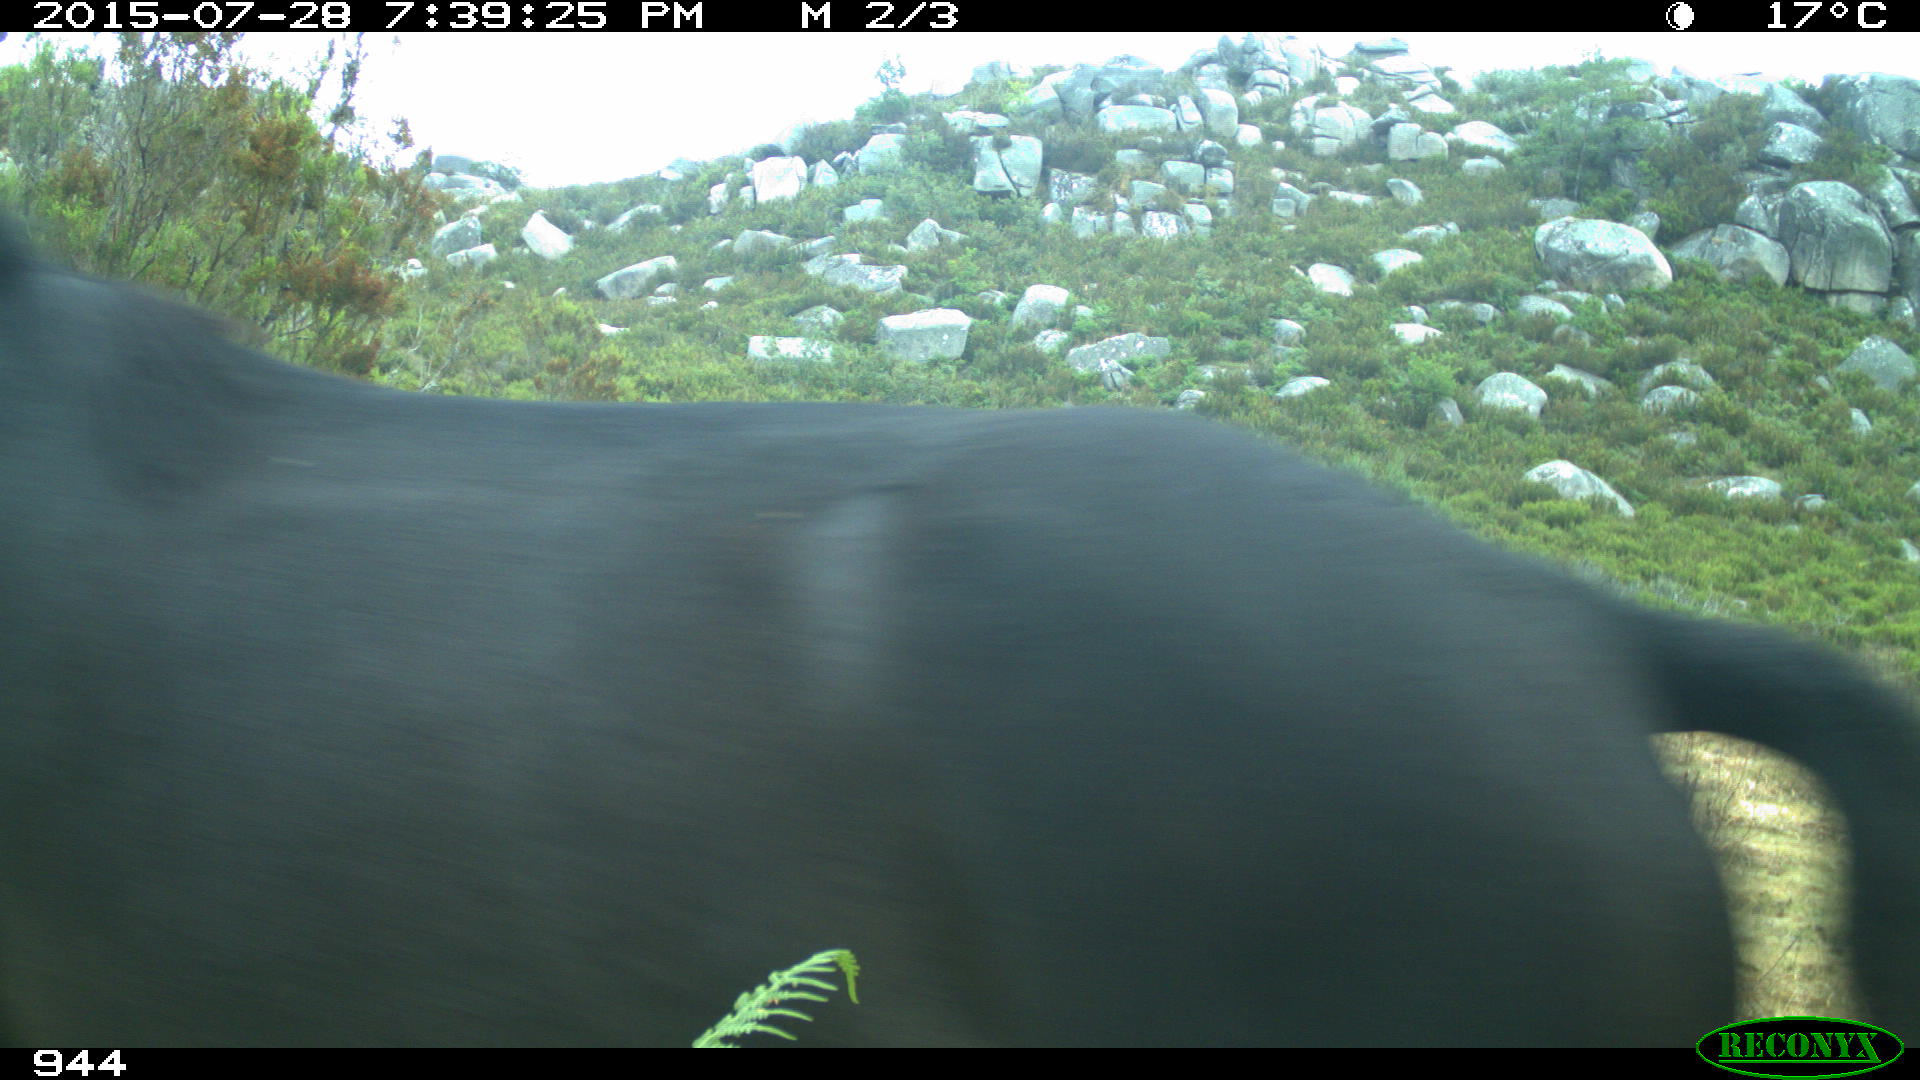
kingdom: Animalia
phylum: Chordata
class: Mammalia
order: Perissodactyla
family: Equidae
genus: Equus
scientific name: Equus caballus
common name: Horse
